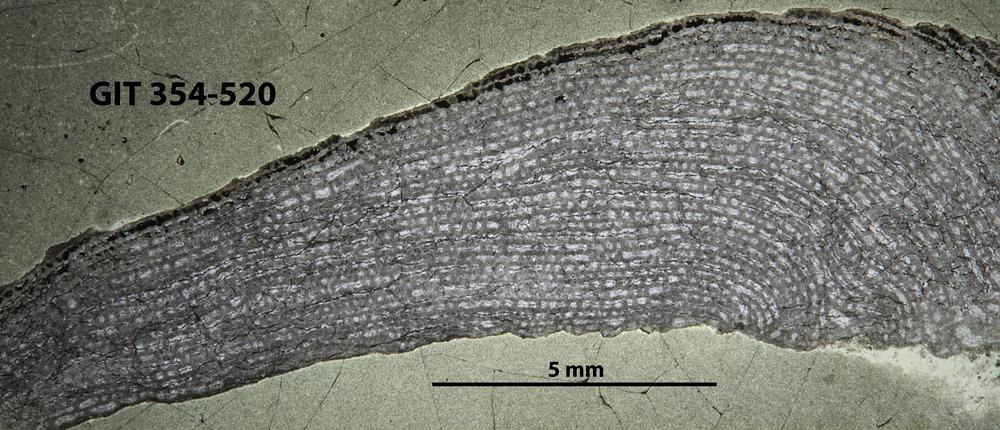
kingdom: Animalia
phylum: Porifera
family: Stromatoporellidae
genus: Simplexodictyon
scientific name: Simplexodictyon
